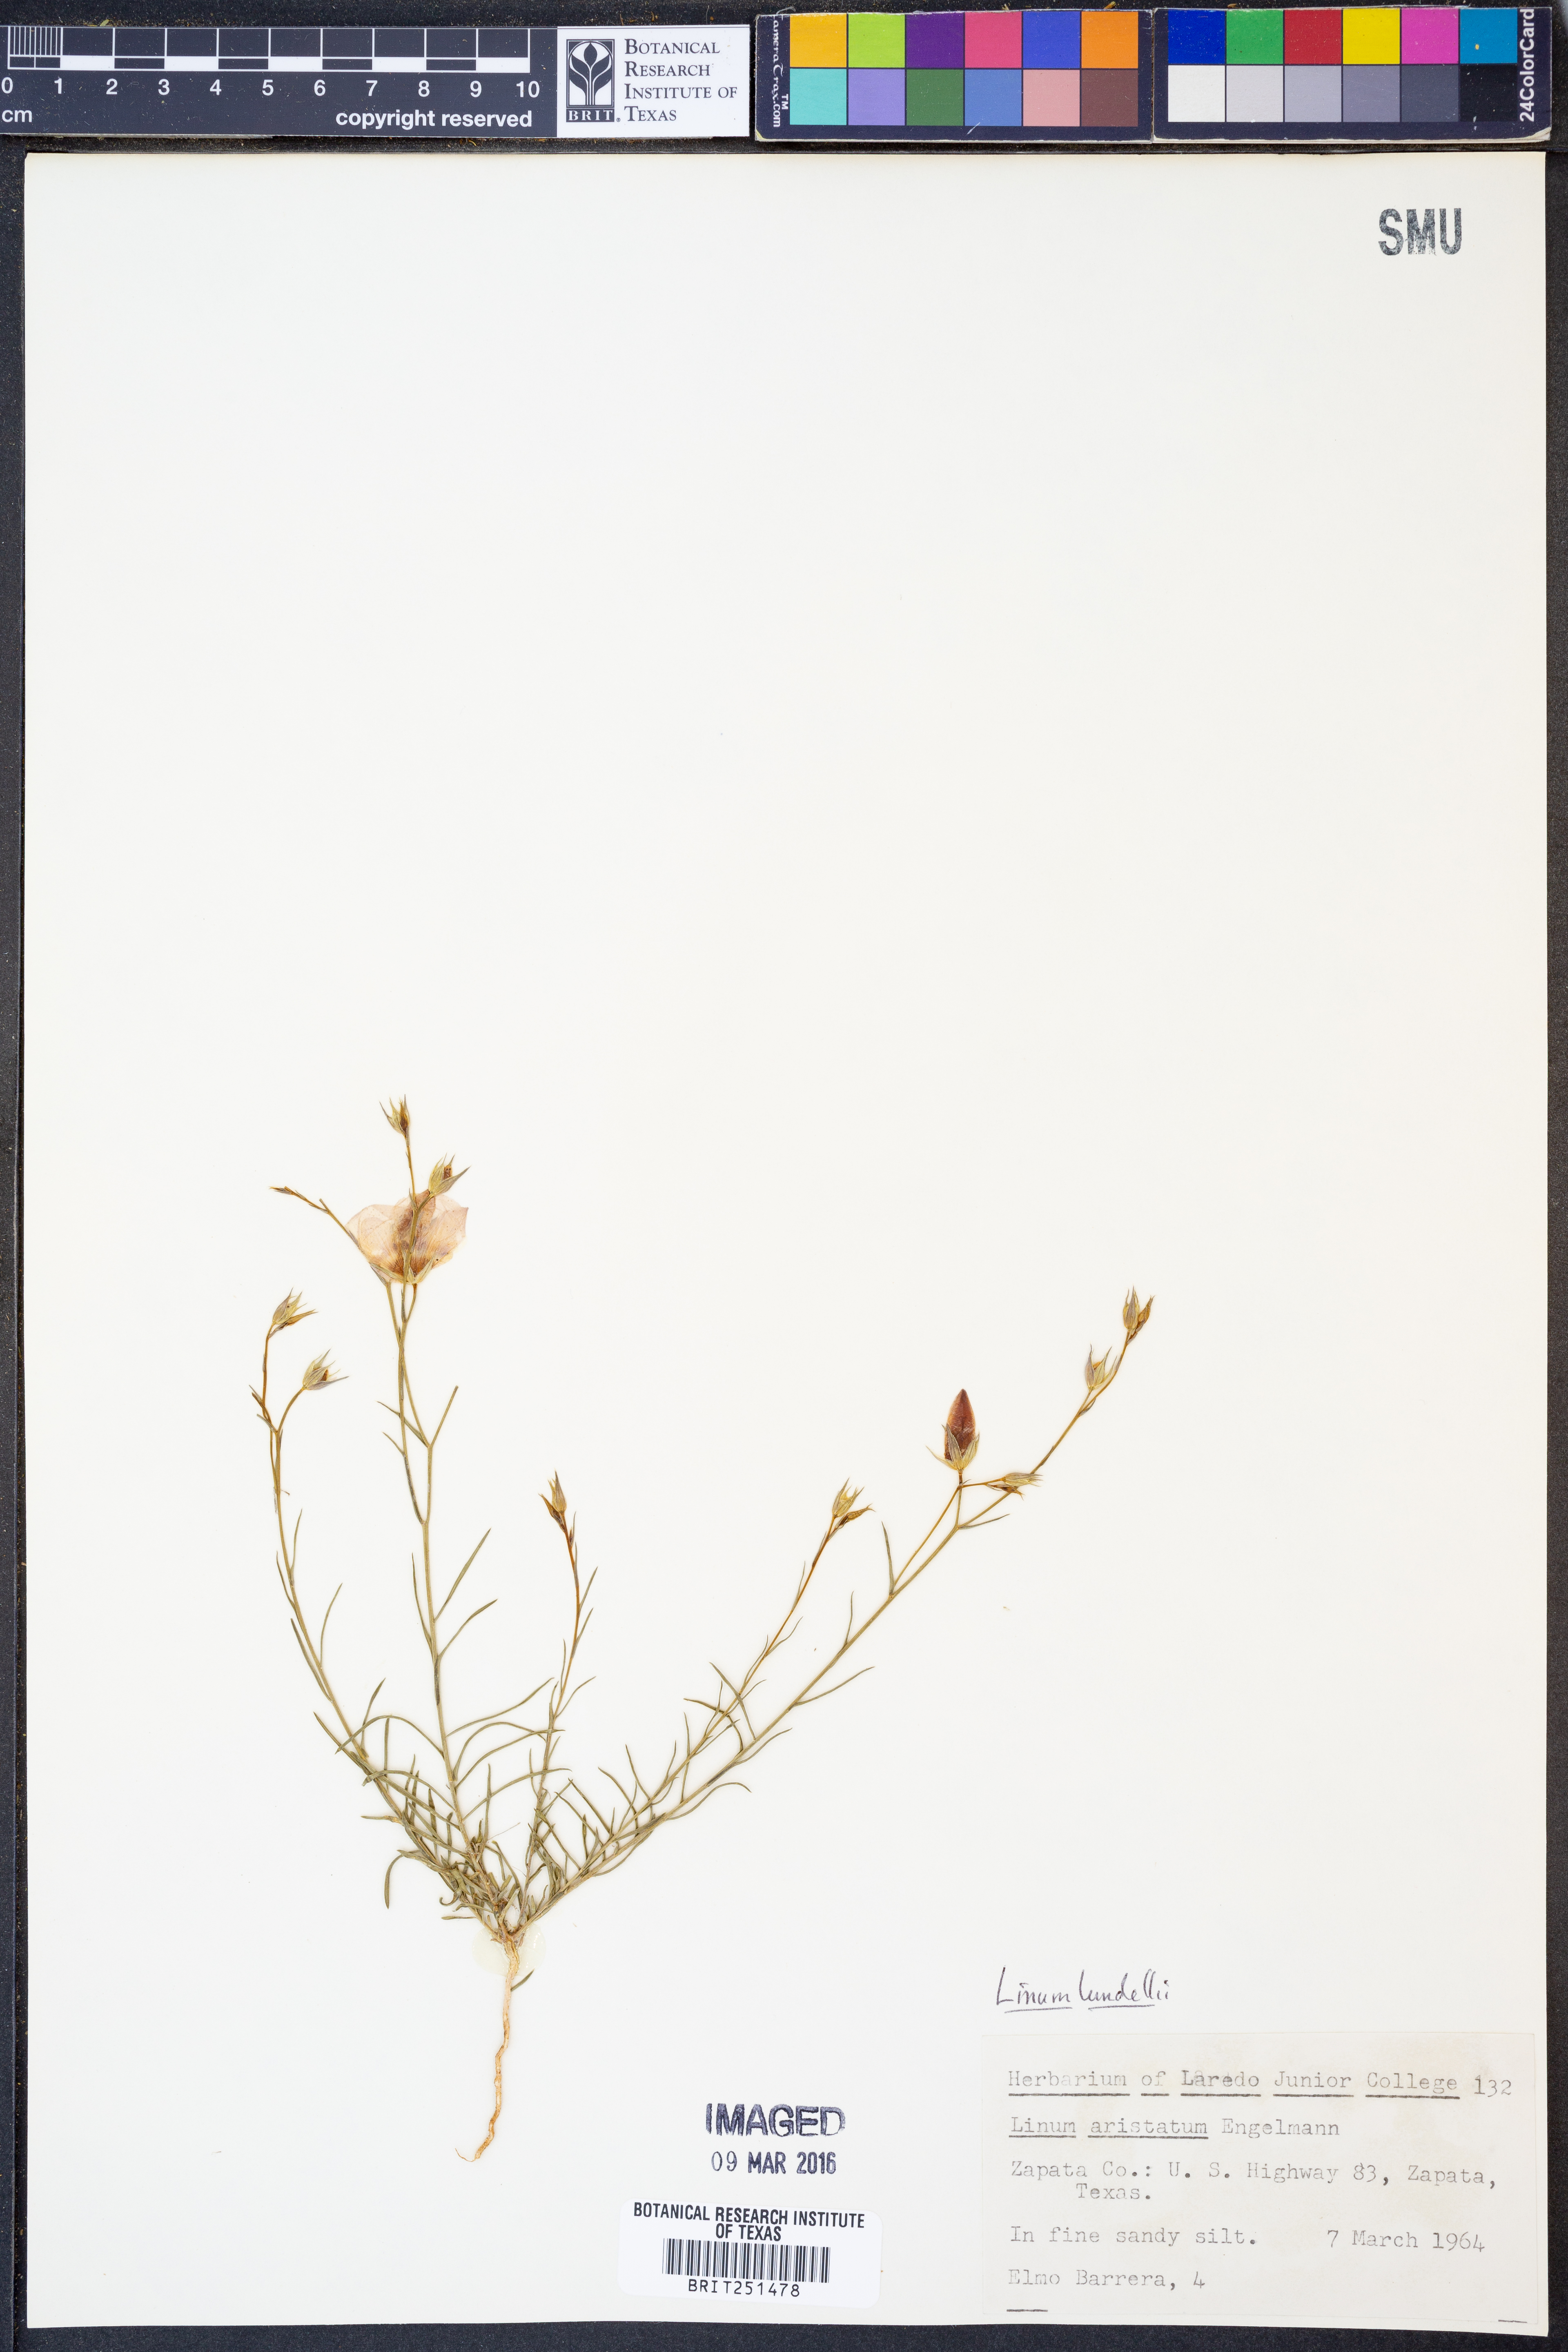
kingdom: Plantae
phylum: Tracheophyta
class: Magnoliopsida
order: Malpighiales
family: Linaceae
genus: Linum
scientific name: Linum lundellii
